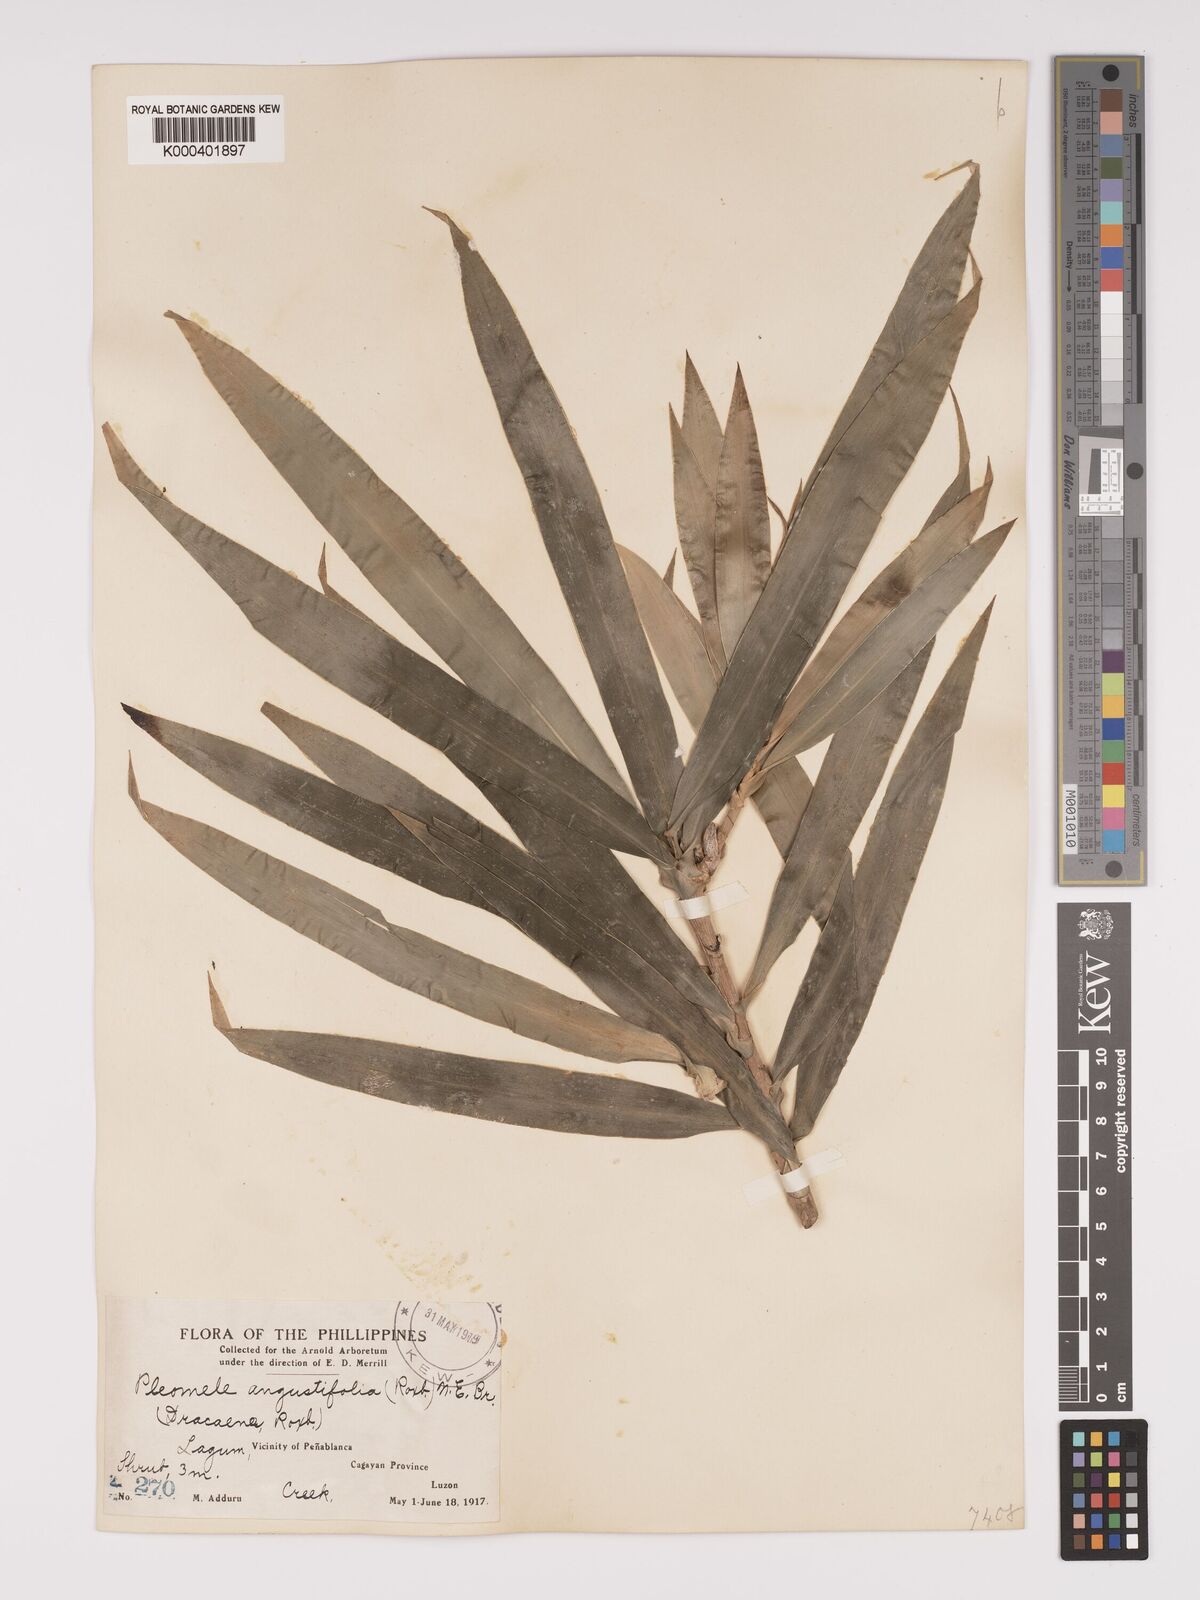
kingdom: Plantae
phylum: Tracheophyta
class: Liliopsida
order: Asparagales
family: Asparagaceae
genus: Dracaena
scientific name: Dracaena angustifolia
